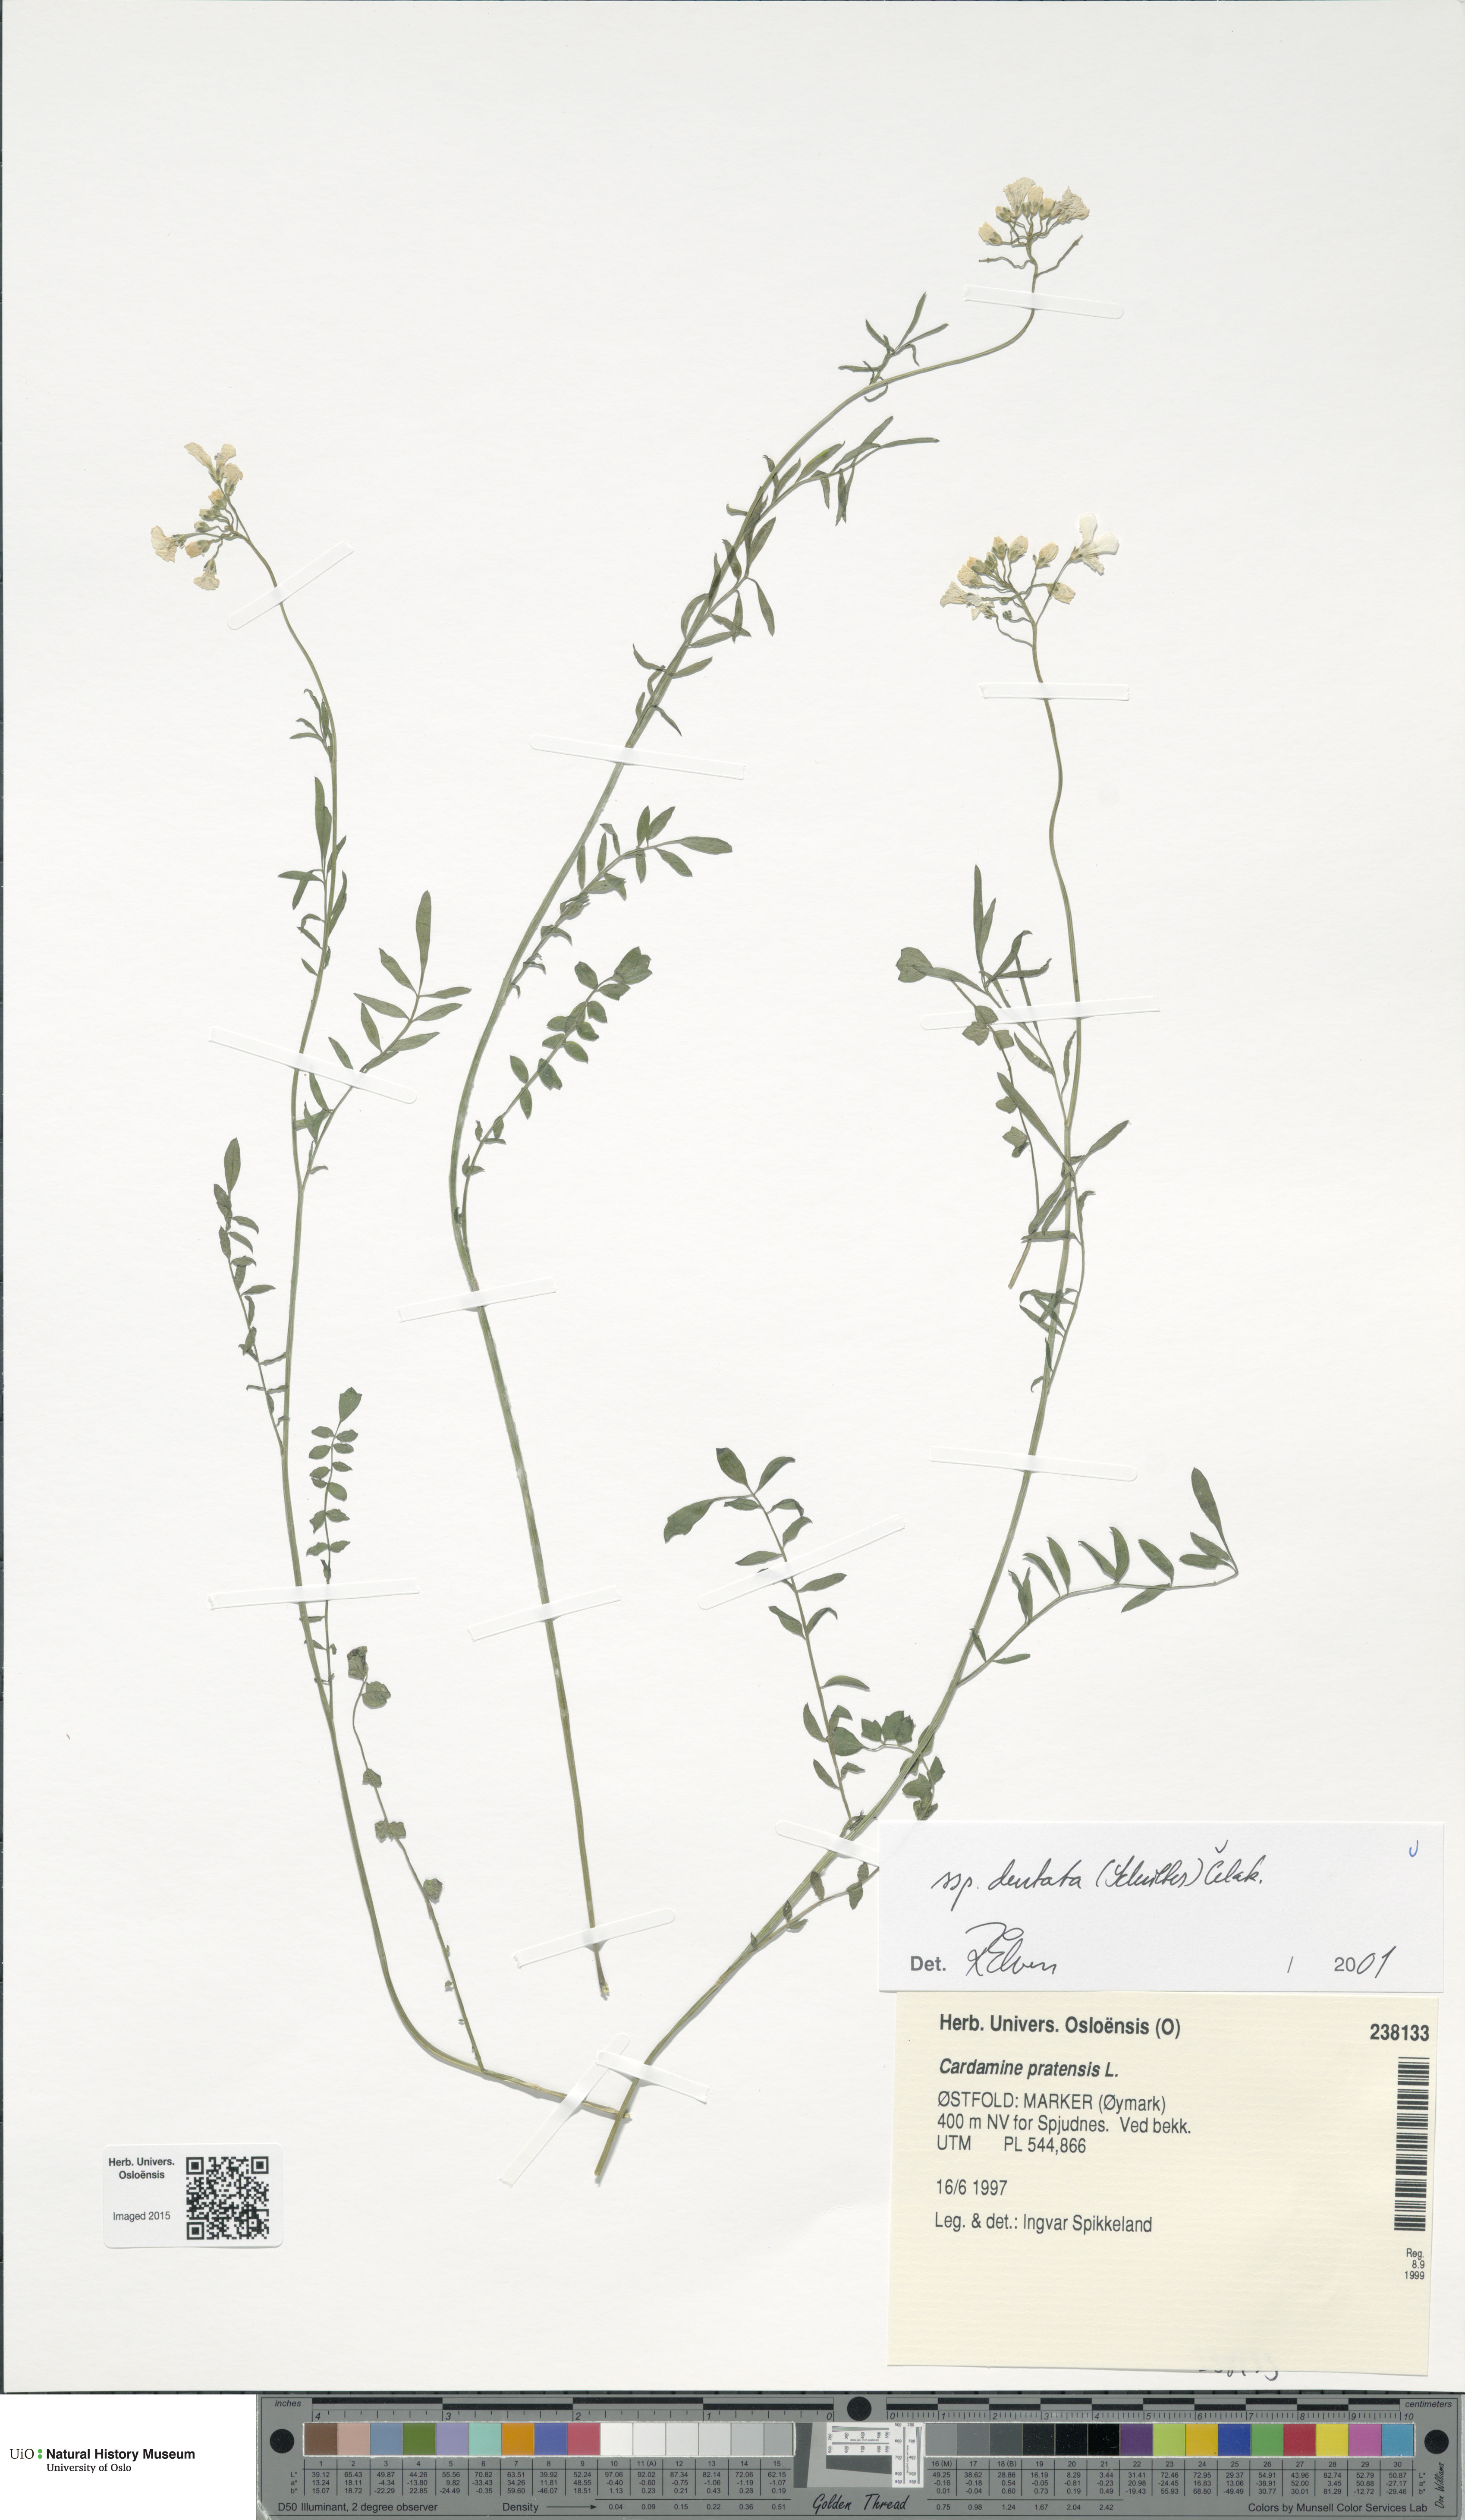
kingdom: Plantae
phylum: Tracheophyta
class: Magnoliopsida
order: Brassicales
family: Brassicaceae
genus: Cardamine
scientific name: Cardamine dentata
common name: Toothed bittercress
